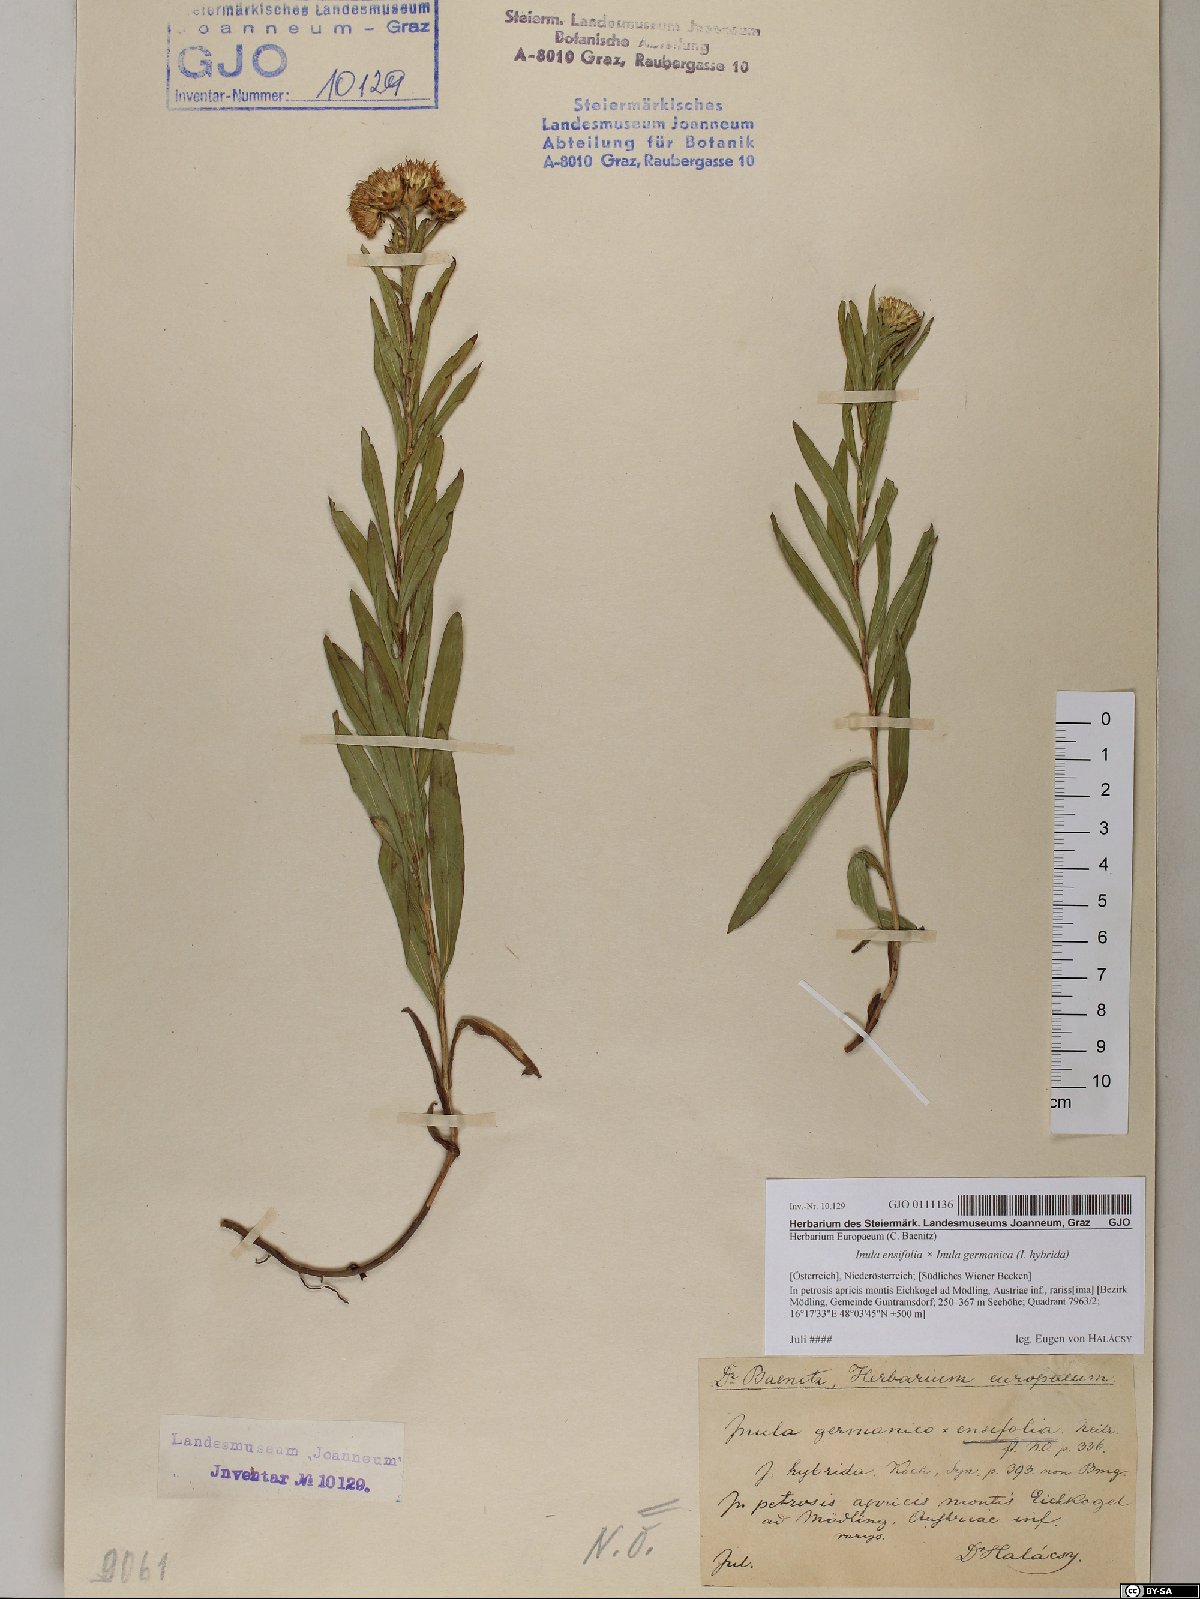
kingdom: Plantae
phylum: Tracheophyta
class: Magnoliopsida
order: Asterales
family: Asteraceae
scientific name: Asteraceae
